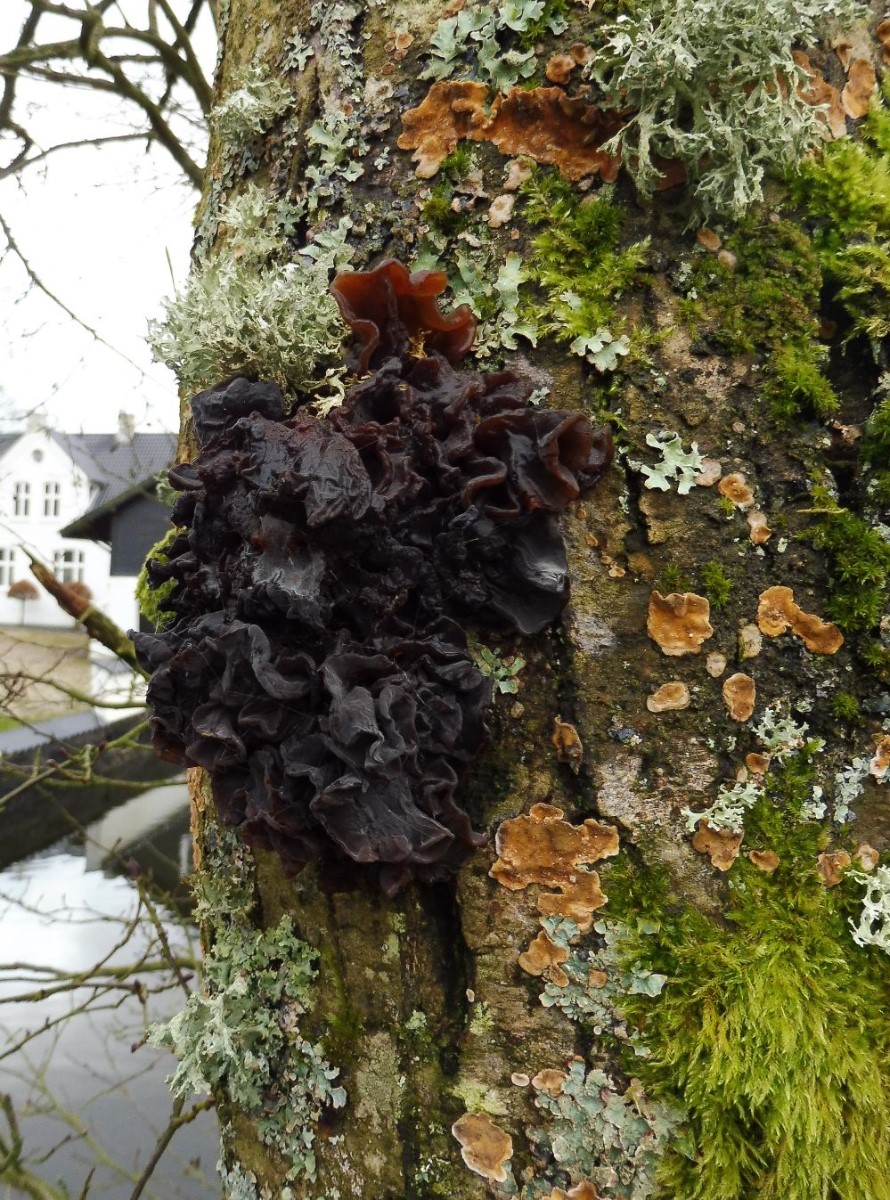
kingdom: Fungi
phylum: Basidiomycota
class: Tremellomycetes
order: Tremellales
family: Tremellaceae
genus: Phaeotremella
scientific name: Phaeotremella frondosa
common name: kæmpe-bævresvamp
